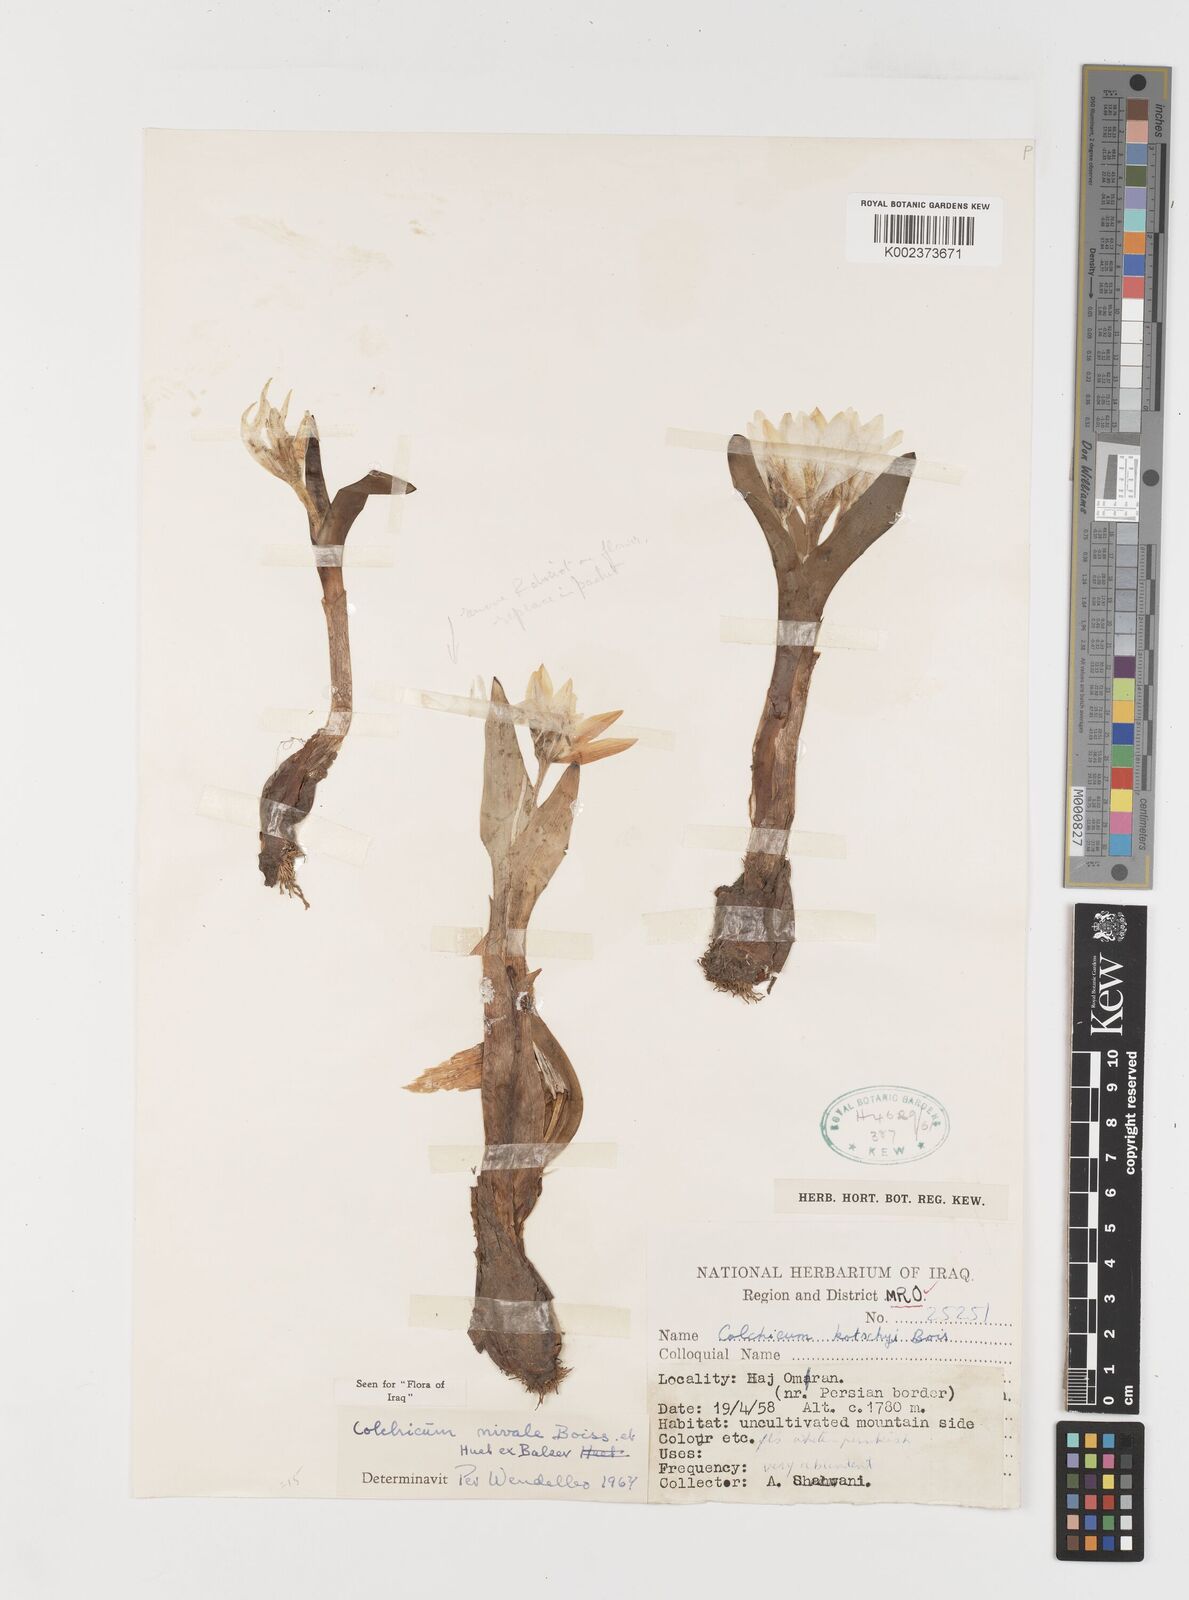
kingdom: Plantae
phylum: Tracheophyta
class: Liliopsida
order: Liliales
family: Colchicaceae
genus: Colchicum
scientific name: Colchicum szovitsii
